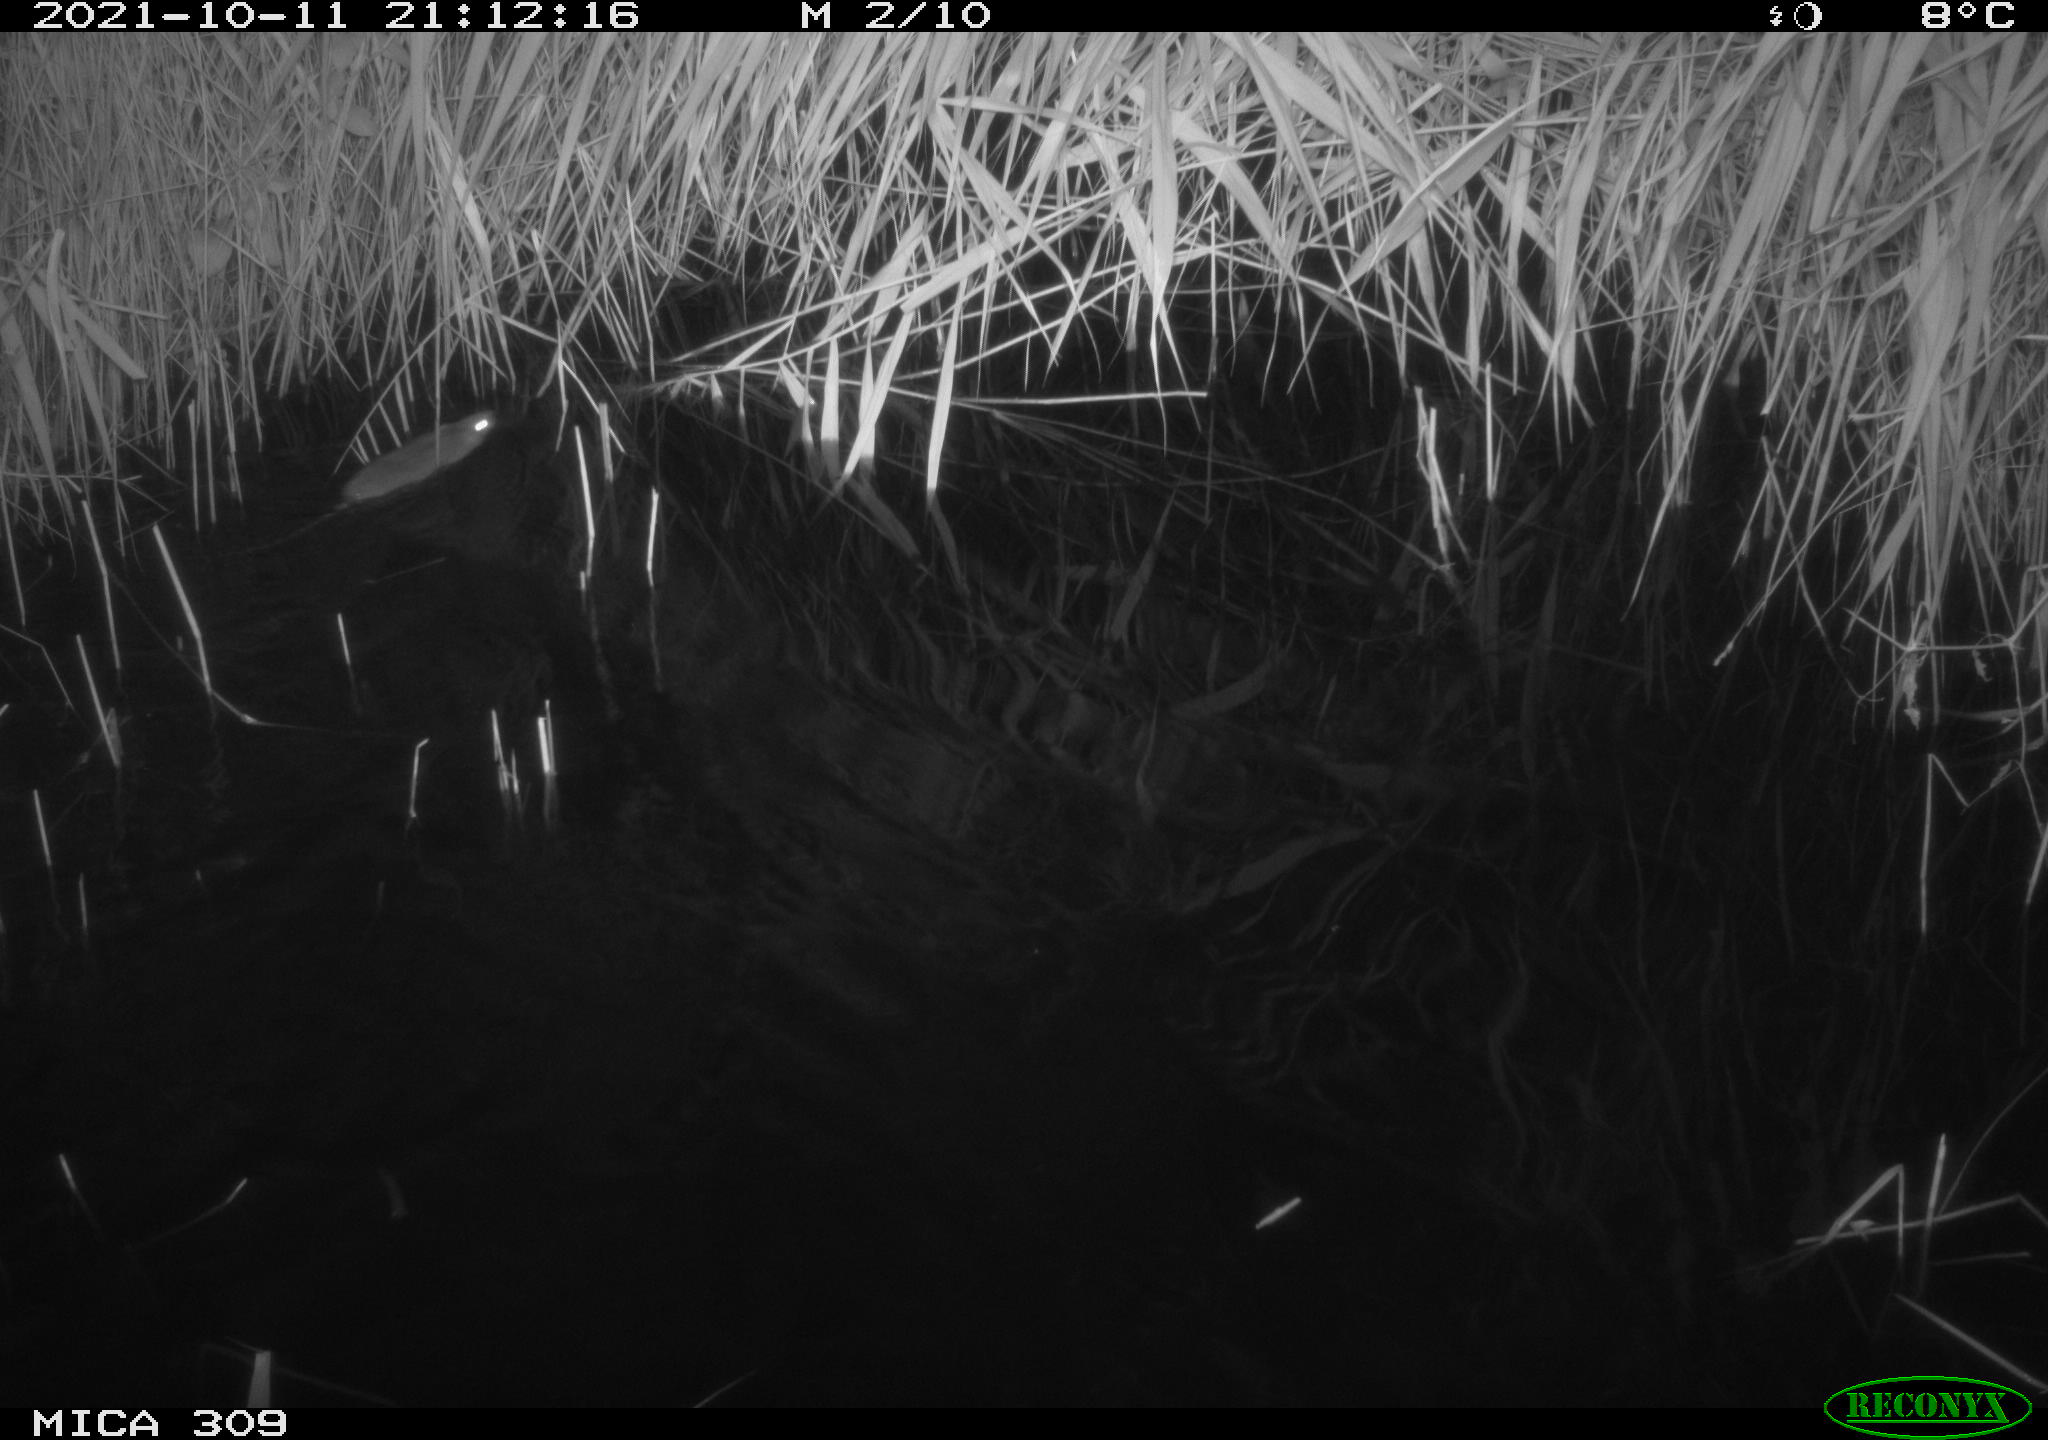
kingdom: Animalia
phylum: Chordata
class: Mammalia
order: Rodentia
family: Muridae
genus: Rattus
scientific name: Rattus norvegicus
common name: Brown rat
